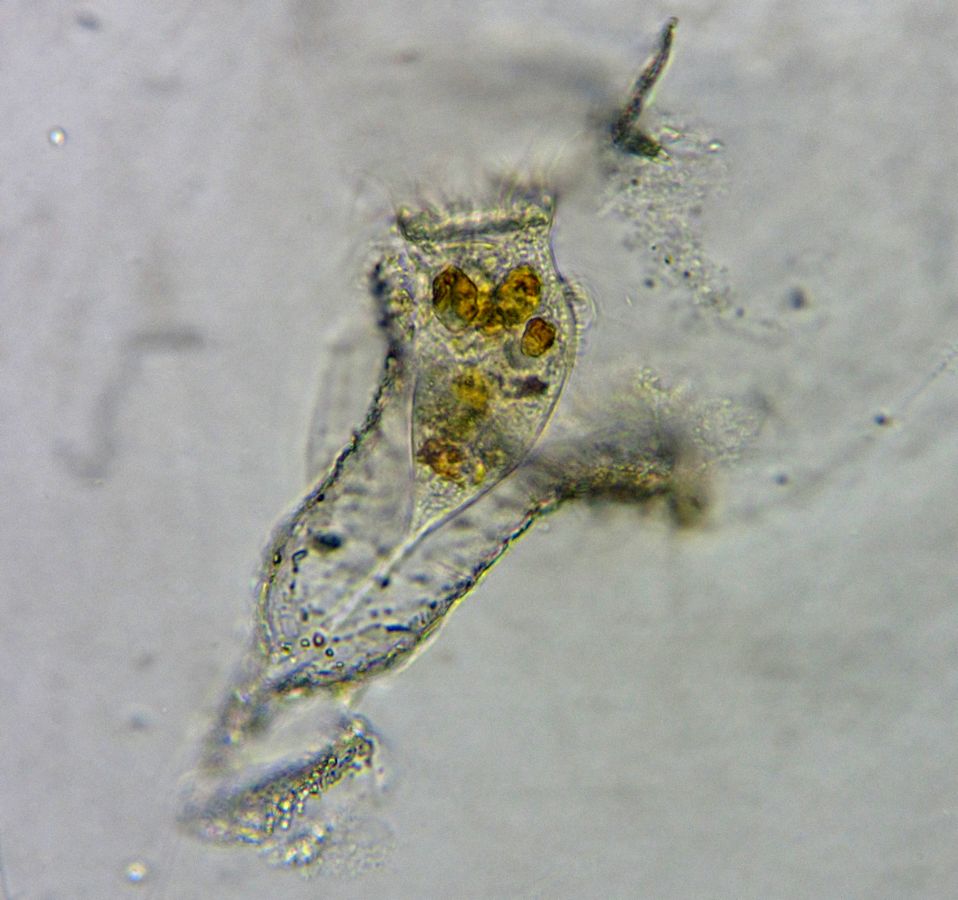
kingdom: Chromista
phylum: Ciliophora
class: Oligotrichea
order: Tintinnida
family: Codonellidae
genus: Tintinnopsis
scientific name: Tintinnopsis campanula
